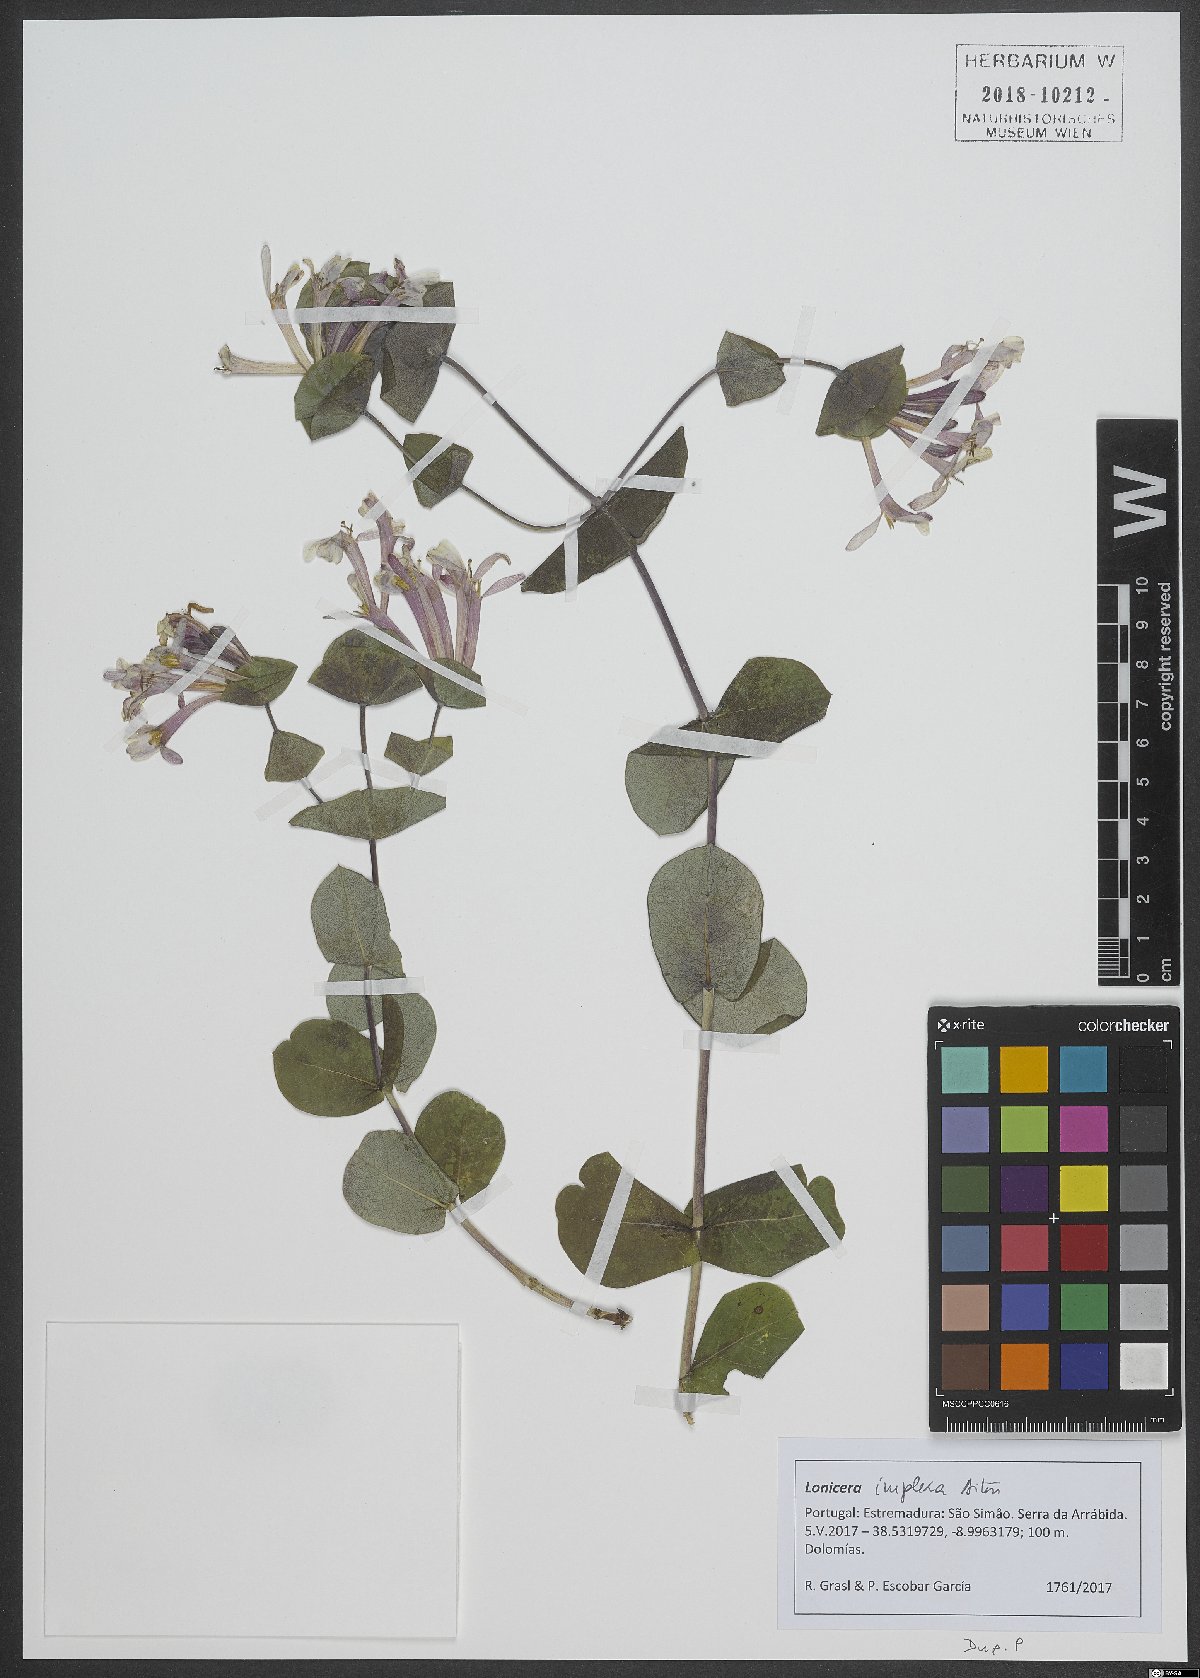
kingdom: Plantae
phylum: Tracheophyta
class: Magnoliopsida
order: Dipsacales
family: Caprifoliaceae
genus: Lonicera
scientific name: Lonicera implexa
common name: Minorca honeysuckle
